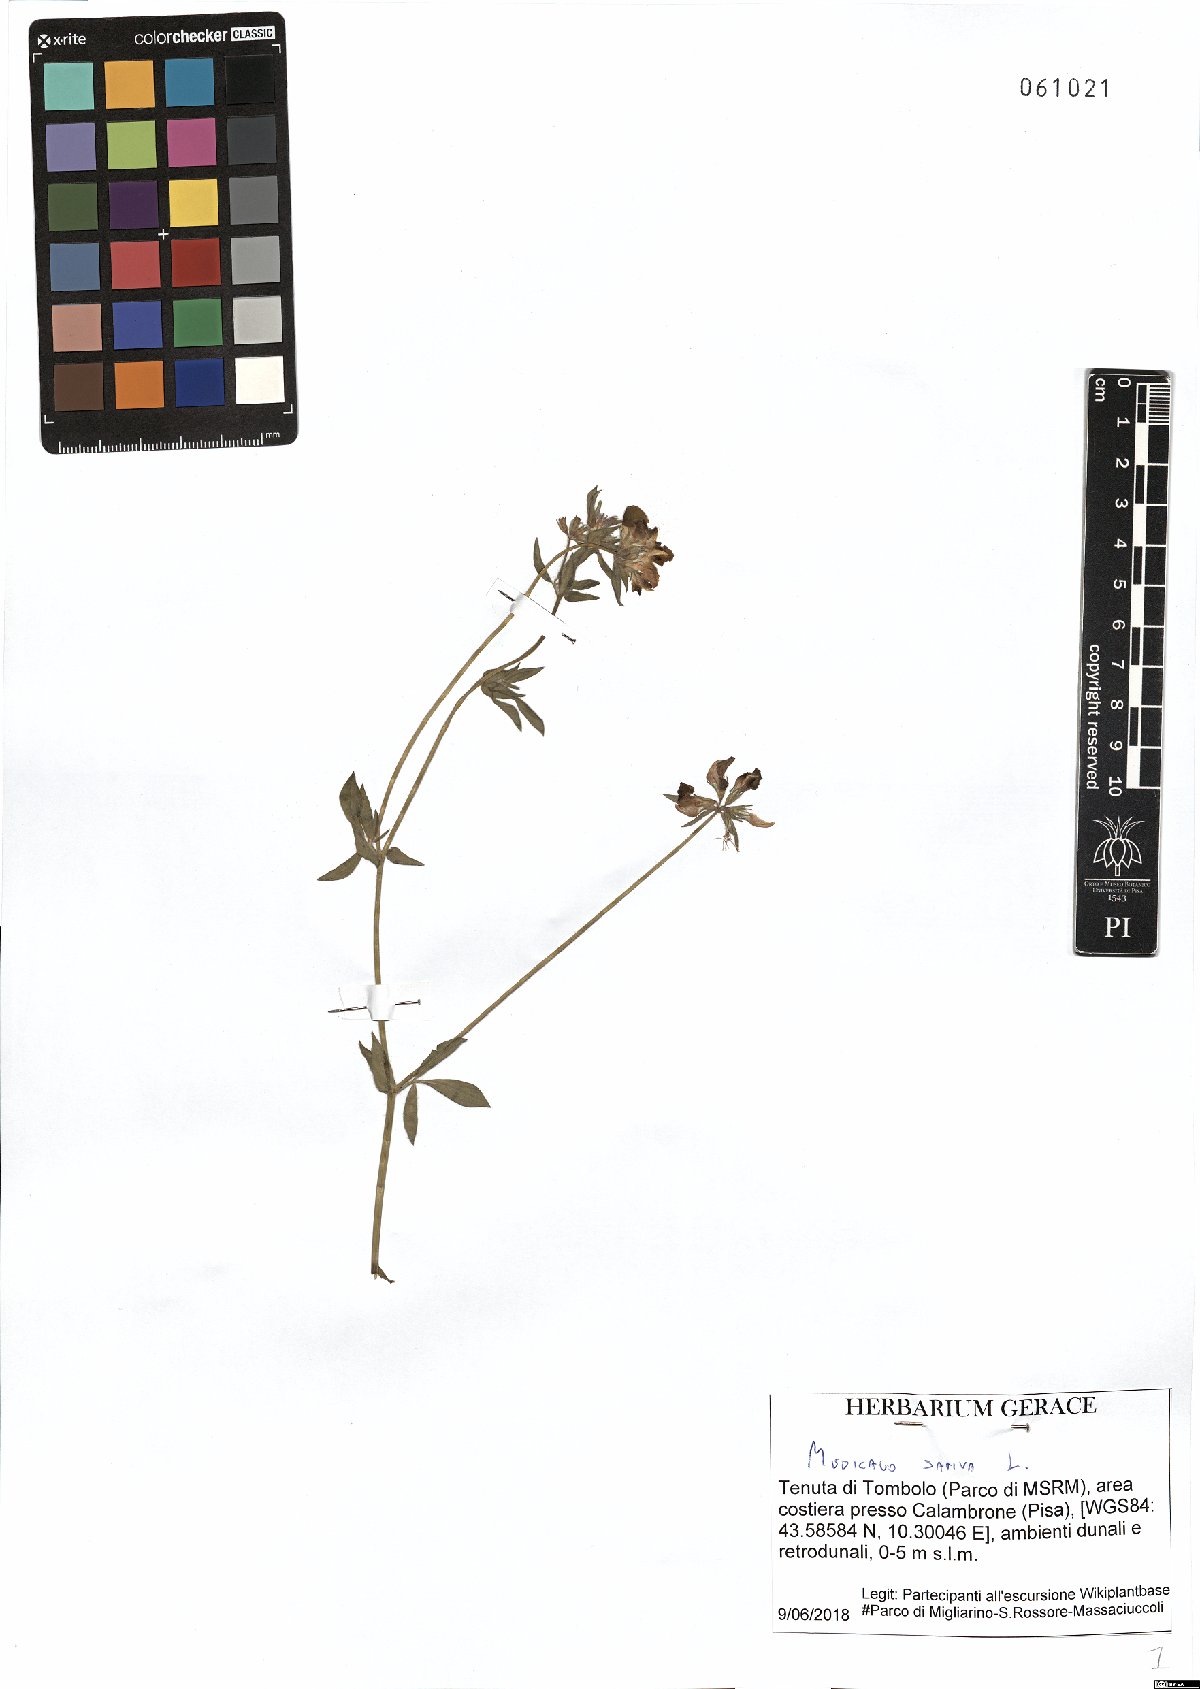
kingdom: Plantae
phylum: Tracheophyta
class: Magnoliopsida
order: Fabales
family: Fabaceae
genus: Medicago
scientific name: Medicago sativa
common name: Alfalfa
